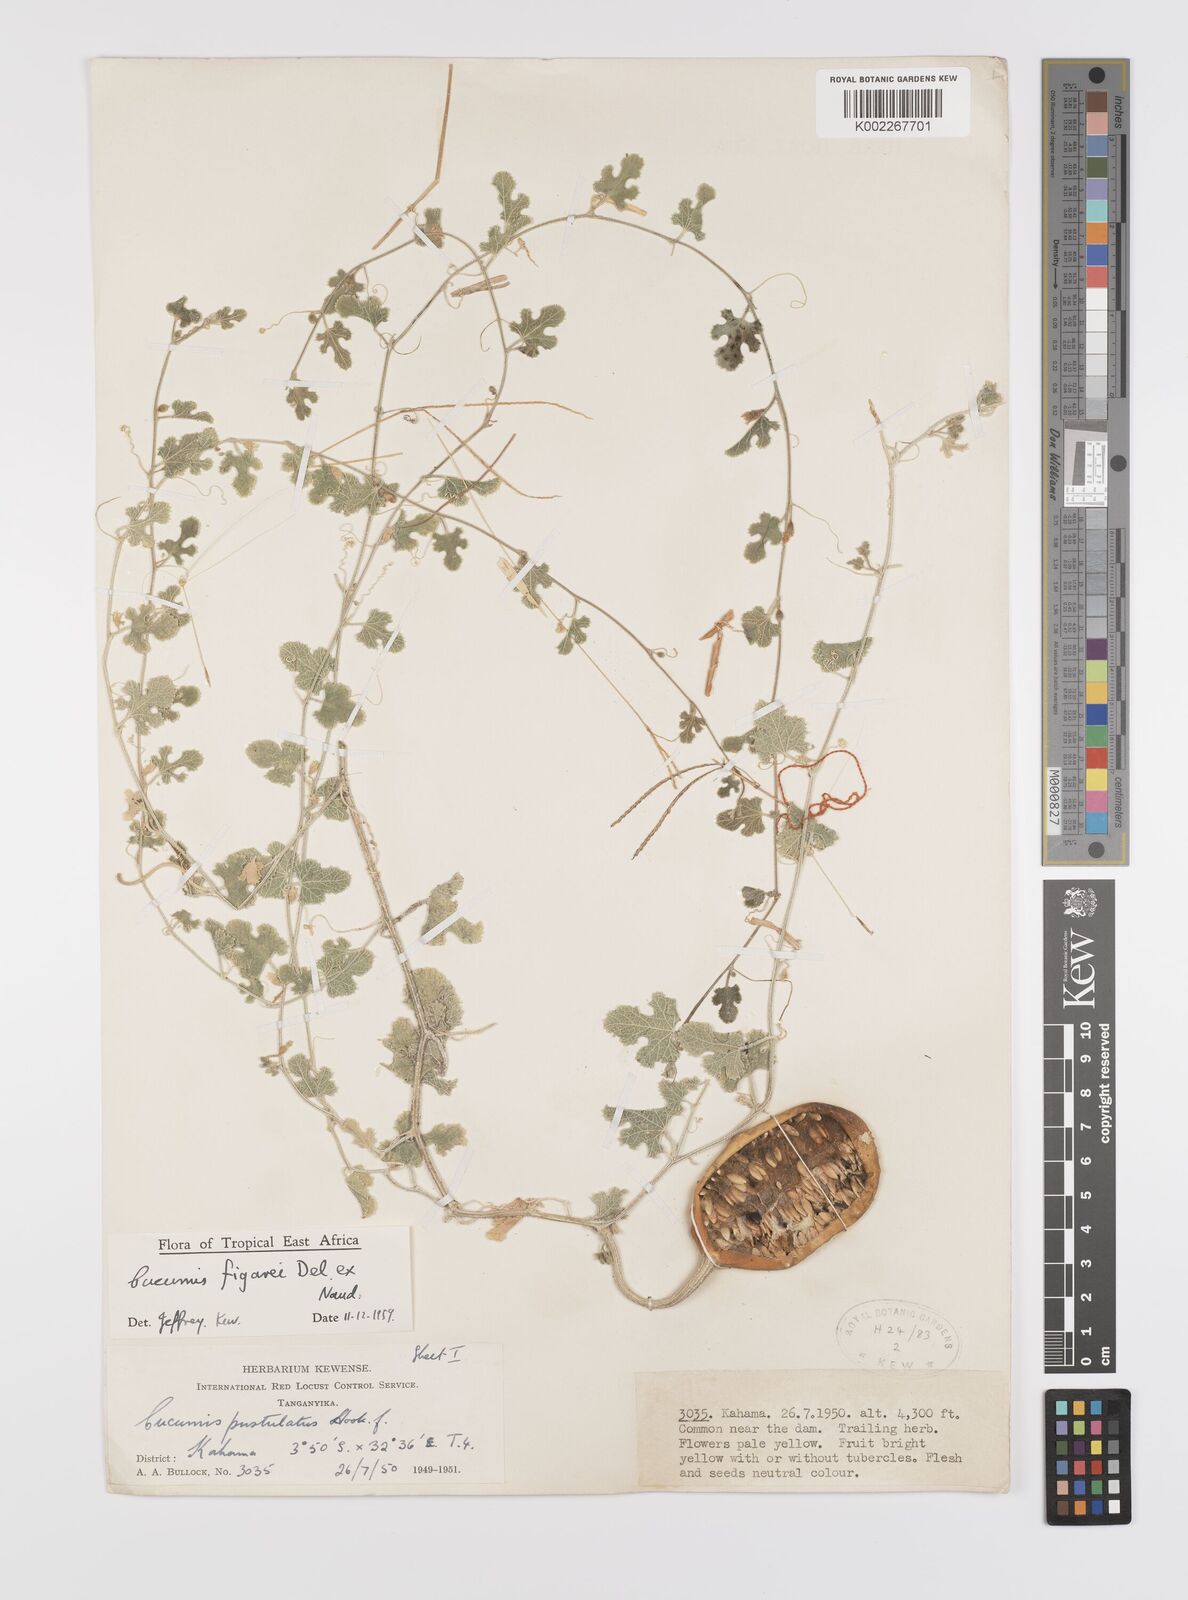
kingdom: Plantae
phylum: Tracheophyta
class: Magnoliopsida
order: Cucurbitales
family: Cucurbitaceae
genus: Cucumis
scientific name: Cucumis pustulatus
